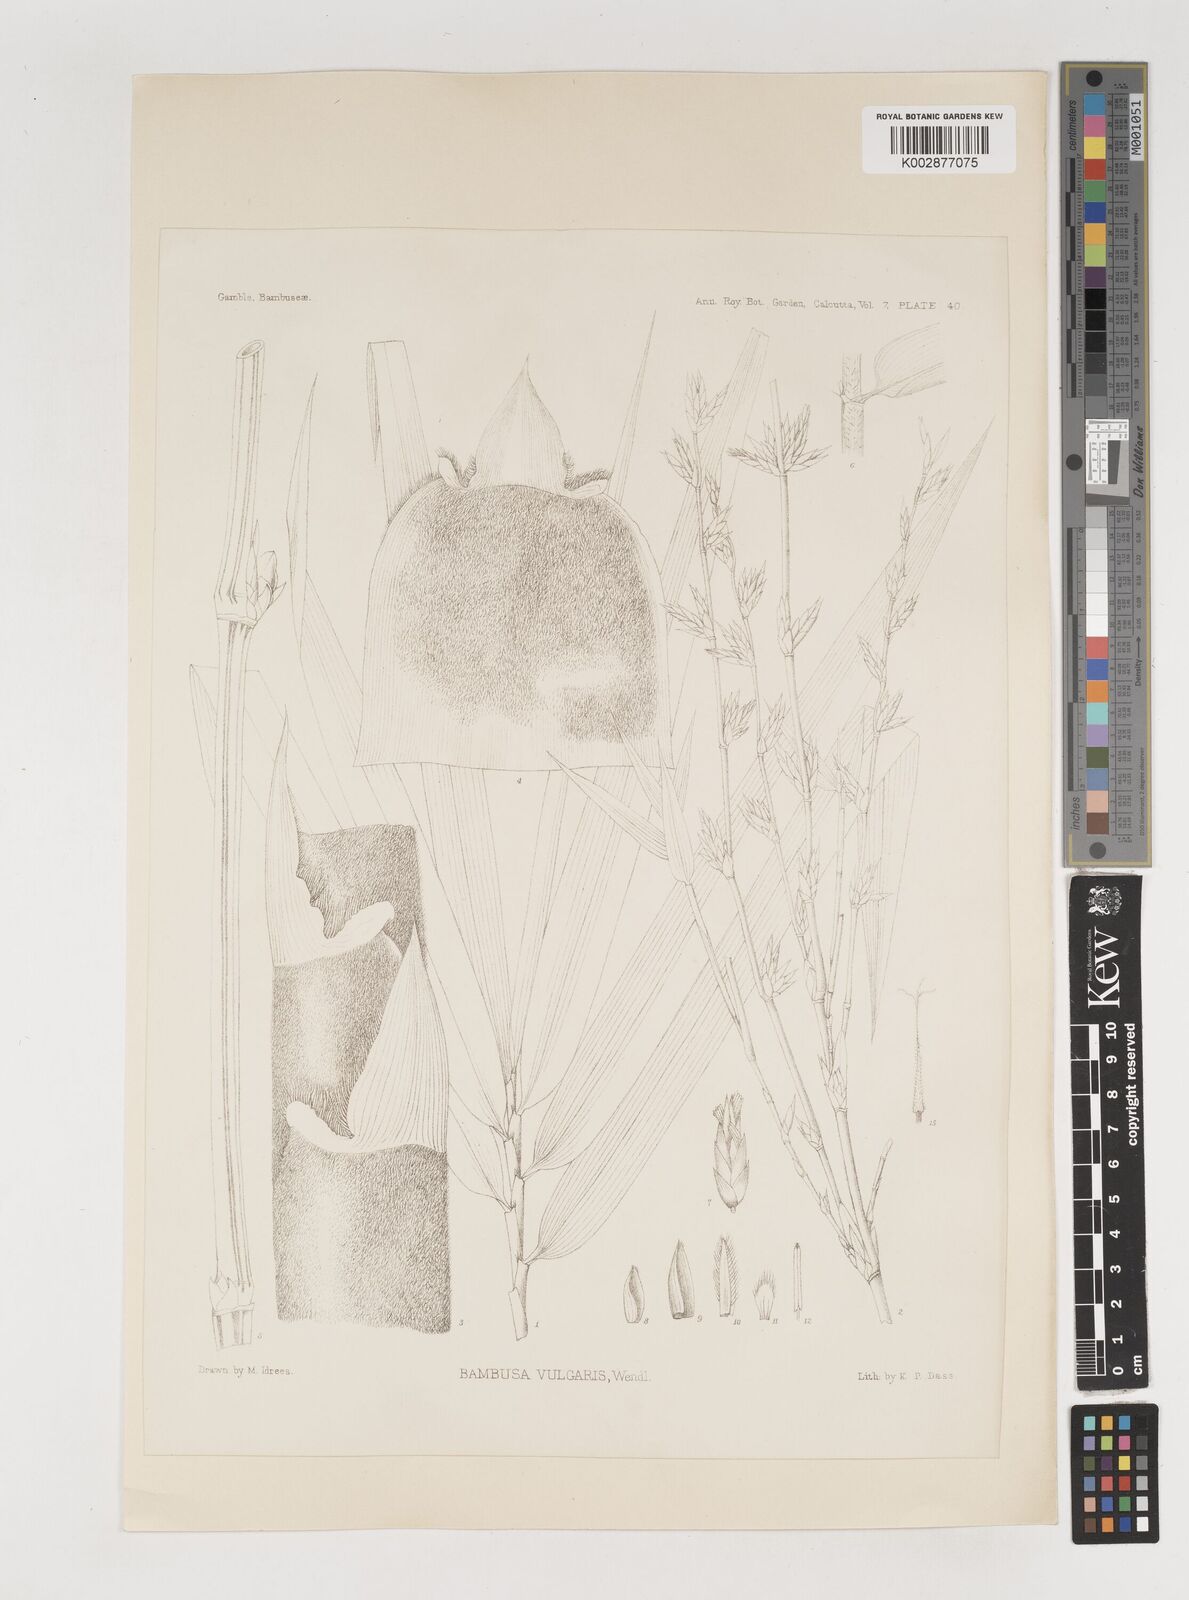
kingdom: Plantae
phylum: Tracheophyta
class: Liliopsida
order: Poales
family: Poaceae
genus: Bambusa
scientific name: Bambusa balcooa
